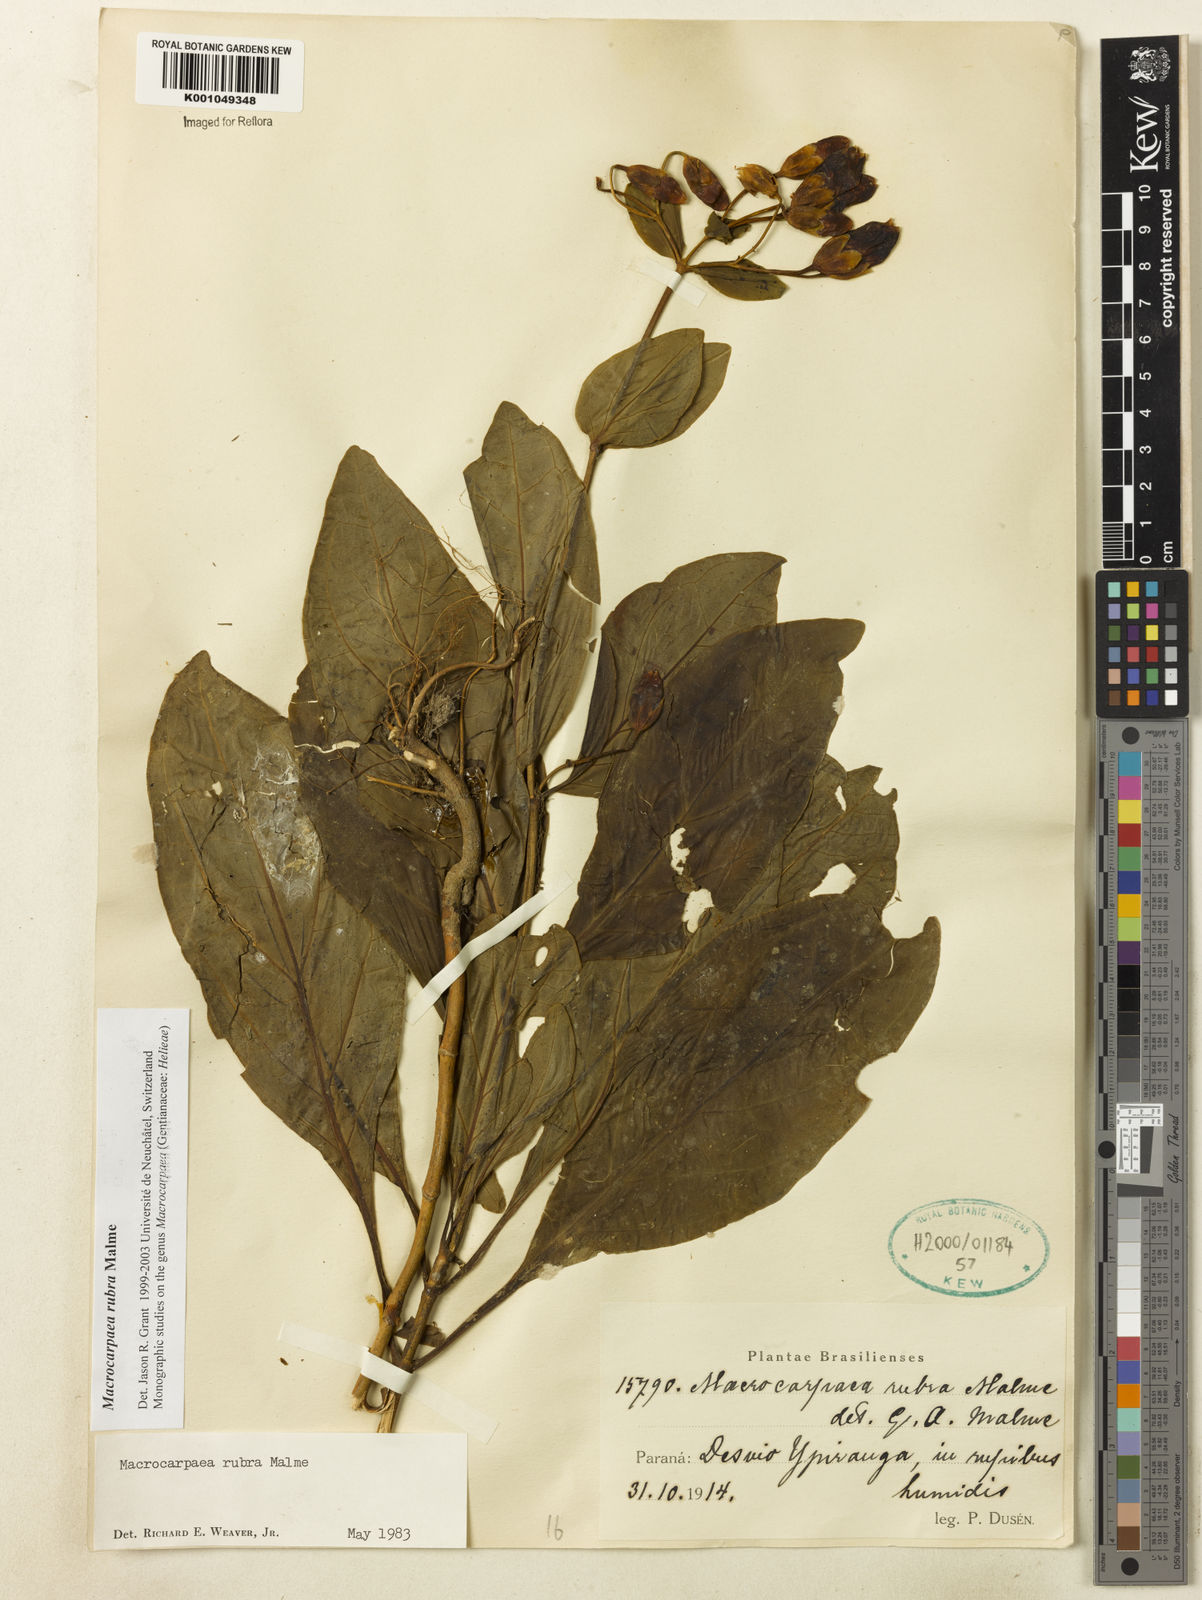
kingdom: Plantae
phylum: Tracheophyta
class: Magnoliopsida
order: Gentianales
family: Gentianaceae
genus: Macrocarpaea
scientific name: Macrocarpaea rubra
